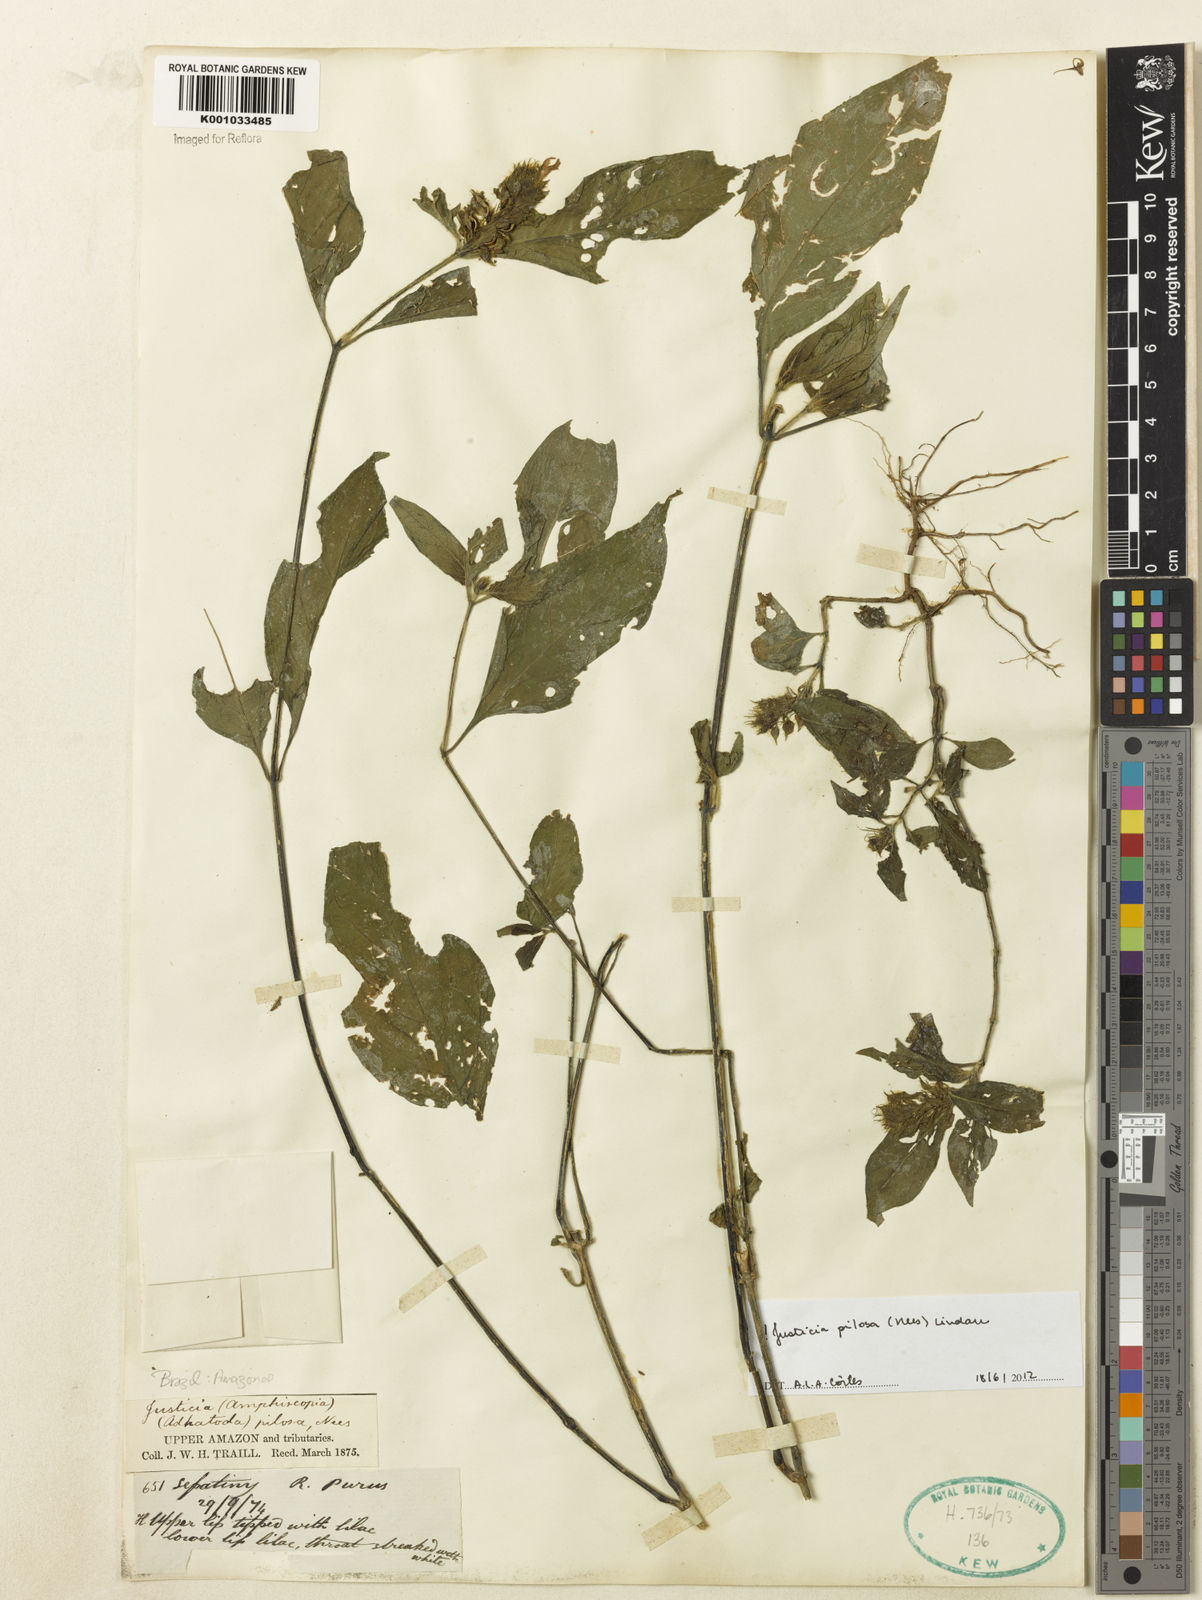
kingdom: Plantae
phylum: Tracheophyta
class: Magnoliopsida
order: Lamiales
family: Acanthaceae
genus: Justicia
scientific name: Justicia pilosa
